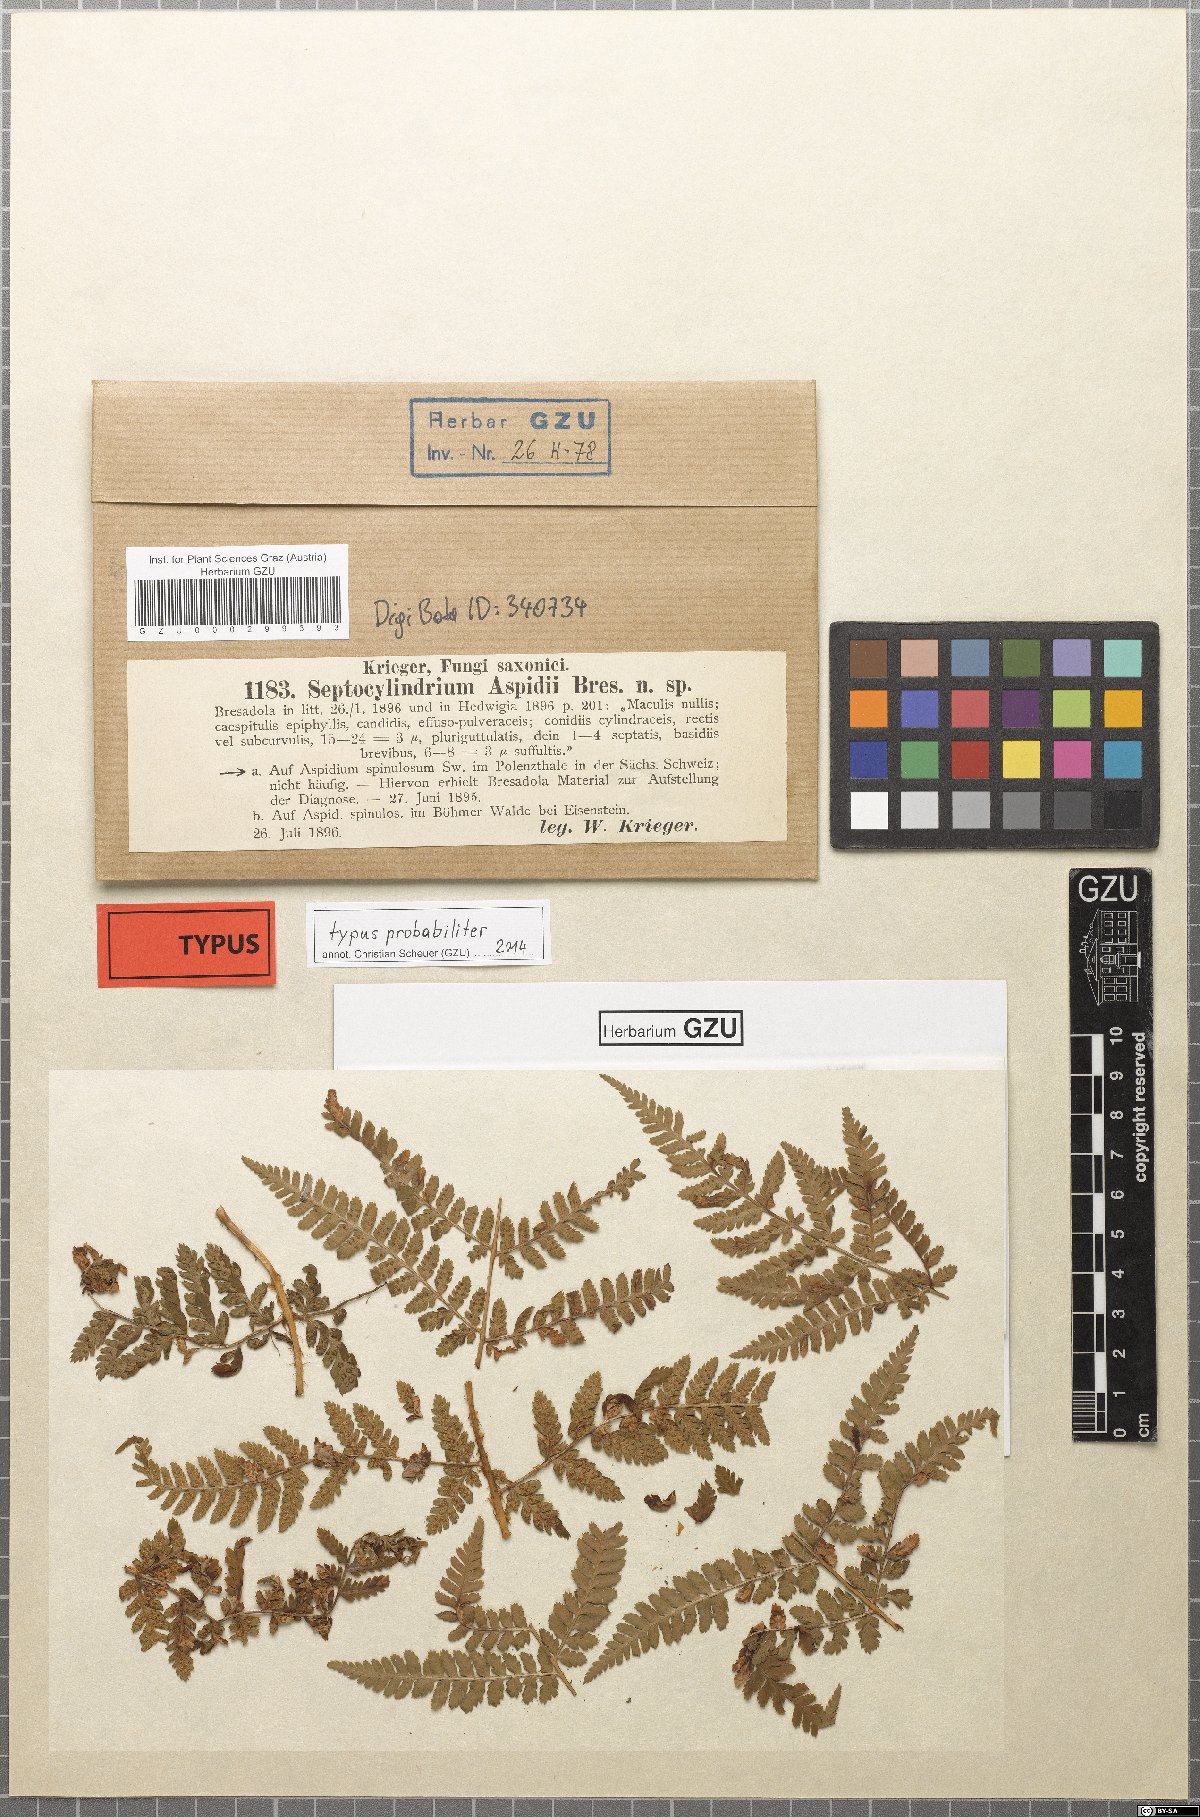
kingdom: Fungi
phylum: Ascomycota
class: Dothideomycetes
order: Mycosphaerellales
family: Mycosphaerellaceae
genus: Pseudocercosporella
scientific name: Pseudocercosporella aspidii
